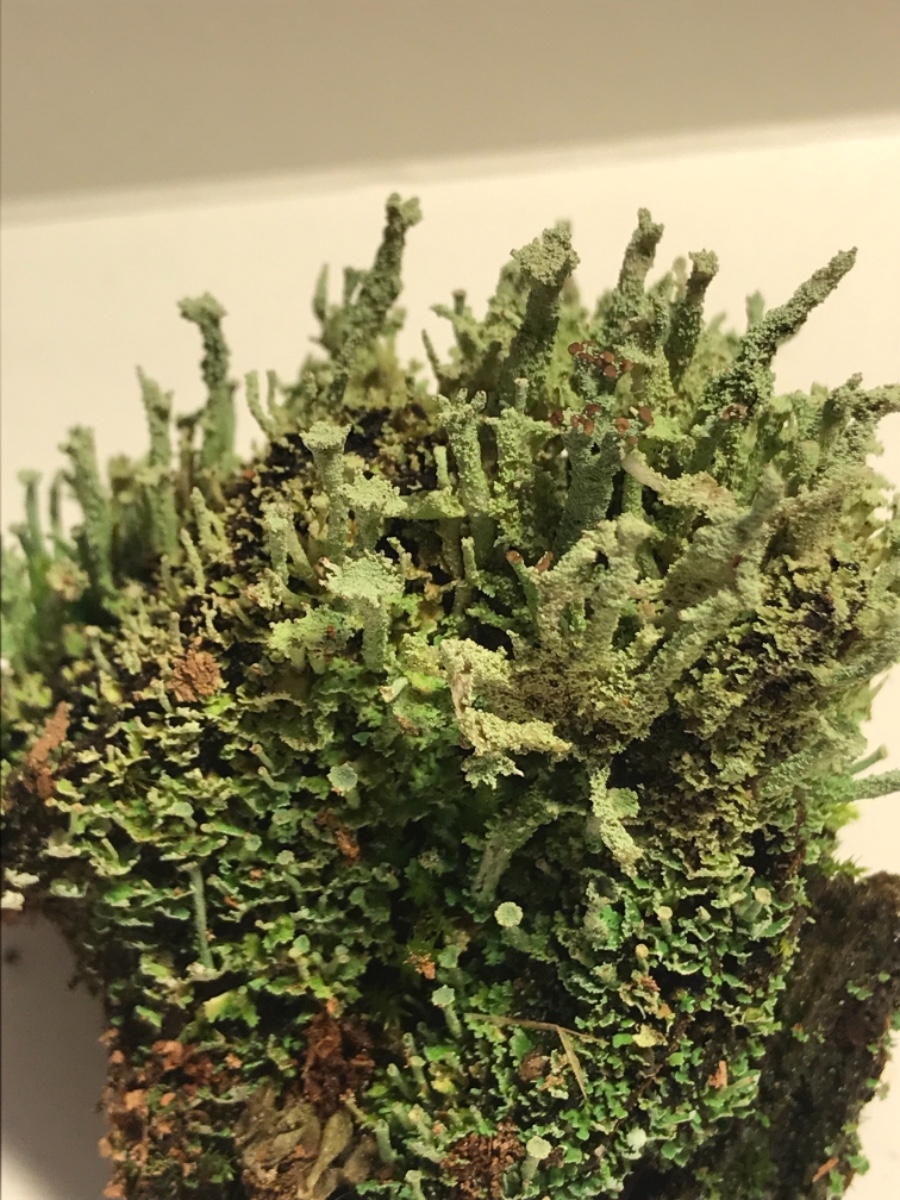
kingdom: Fungi
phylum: Ascomycota
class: Lecanoromycetes
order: Lecanorales
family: Cladoniaceae
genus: Cladonia
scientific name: Cladonia ramulosa
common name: kliddet bægerlav
